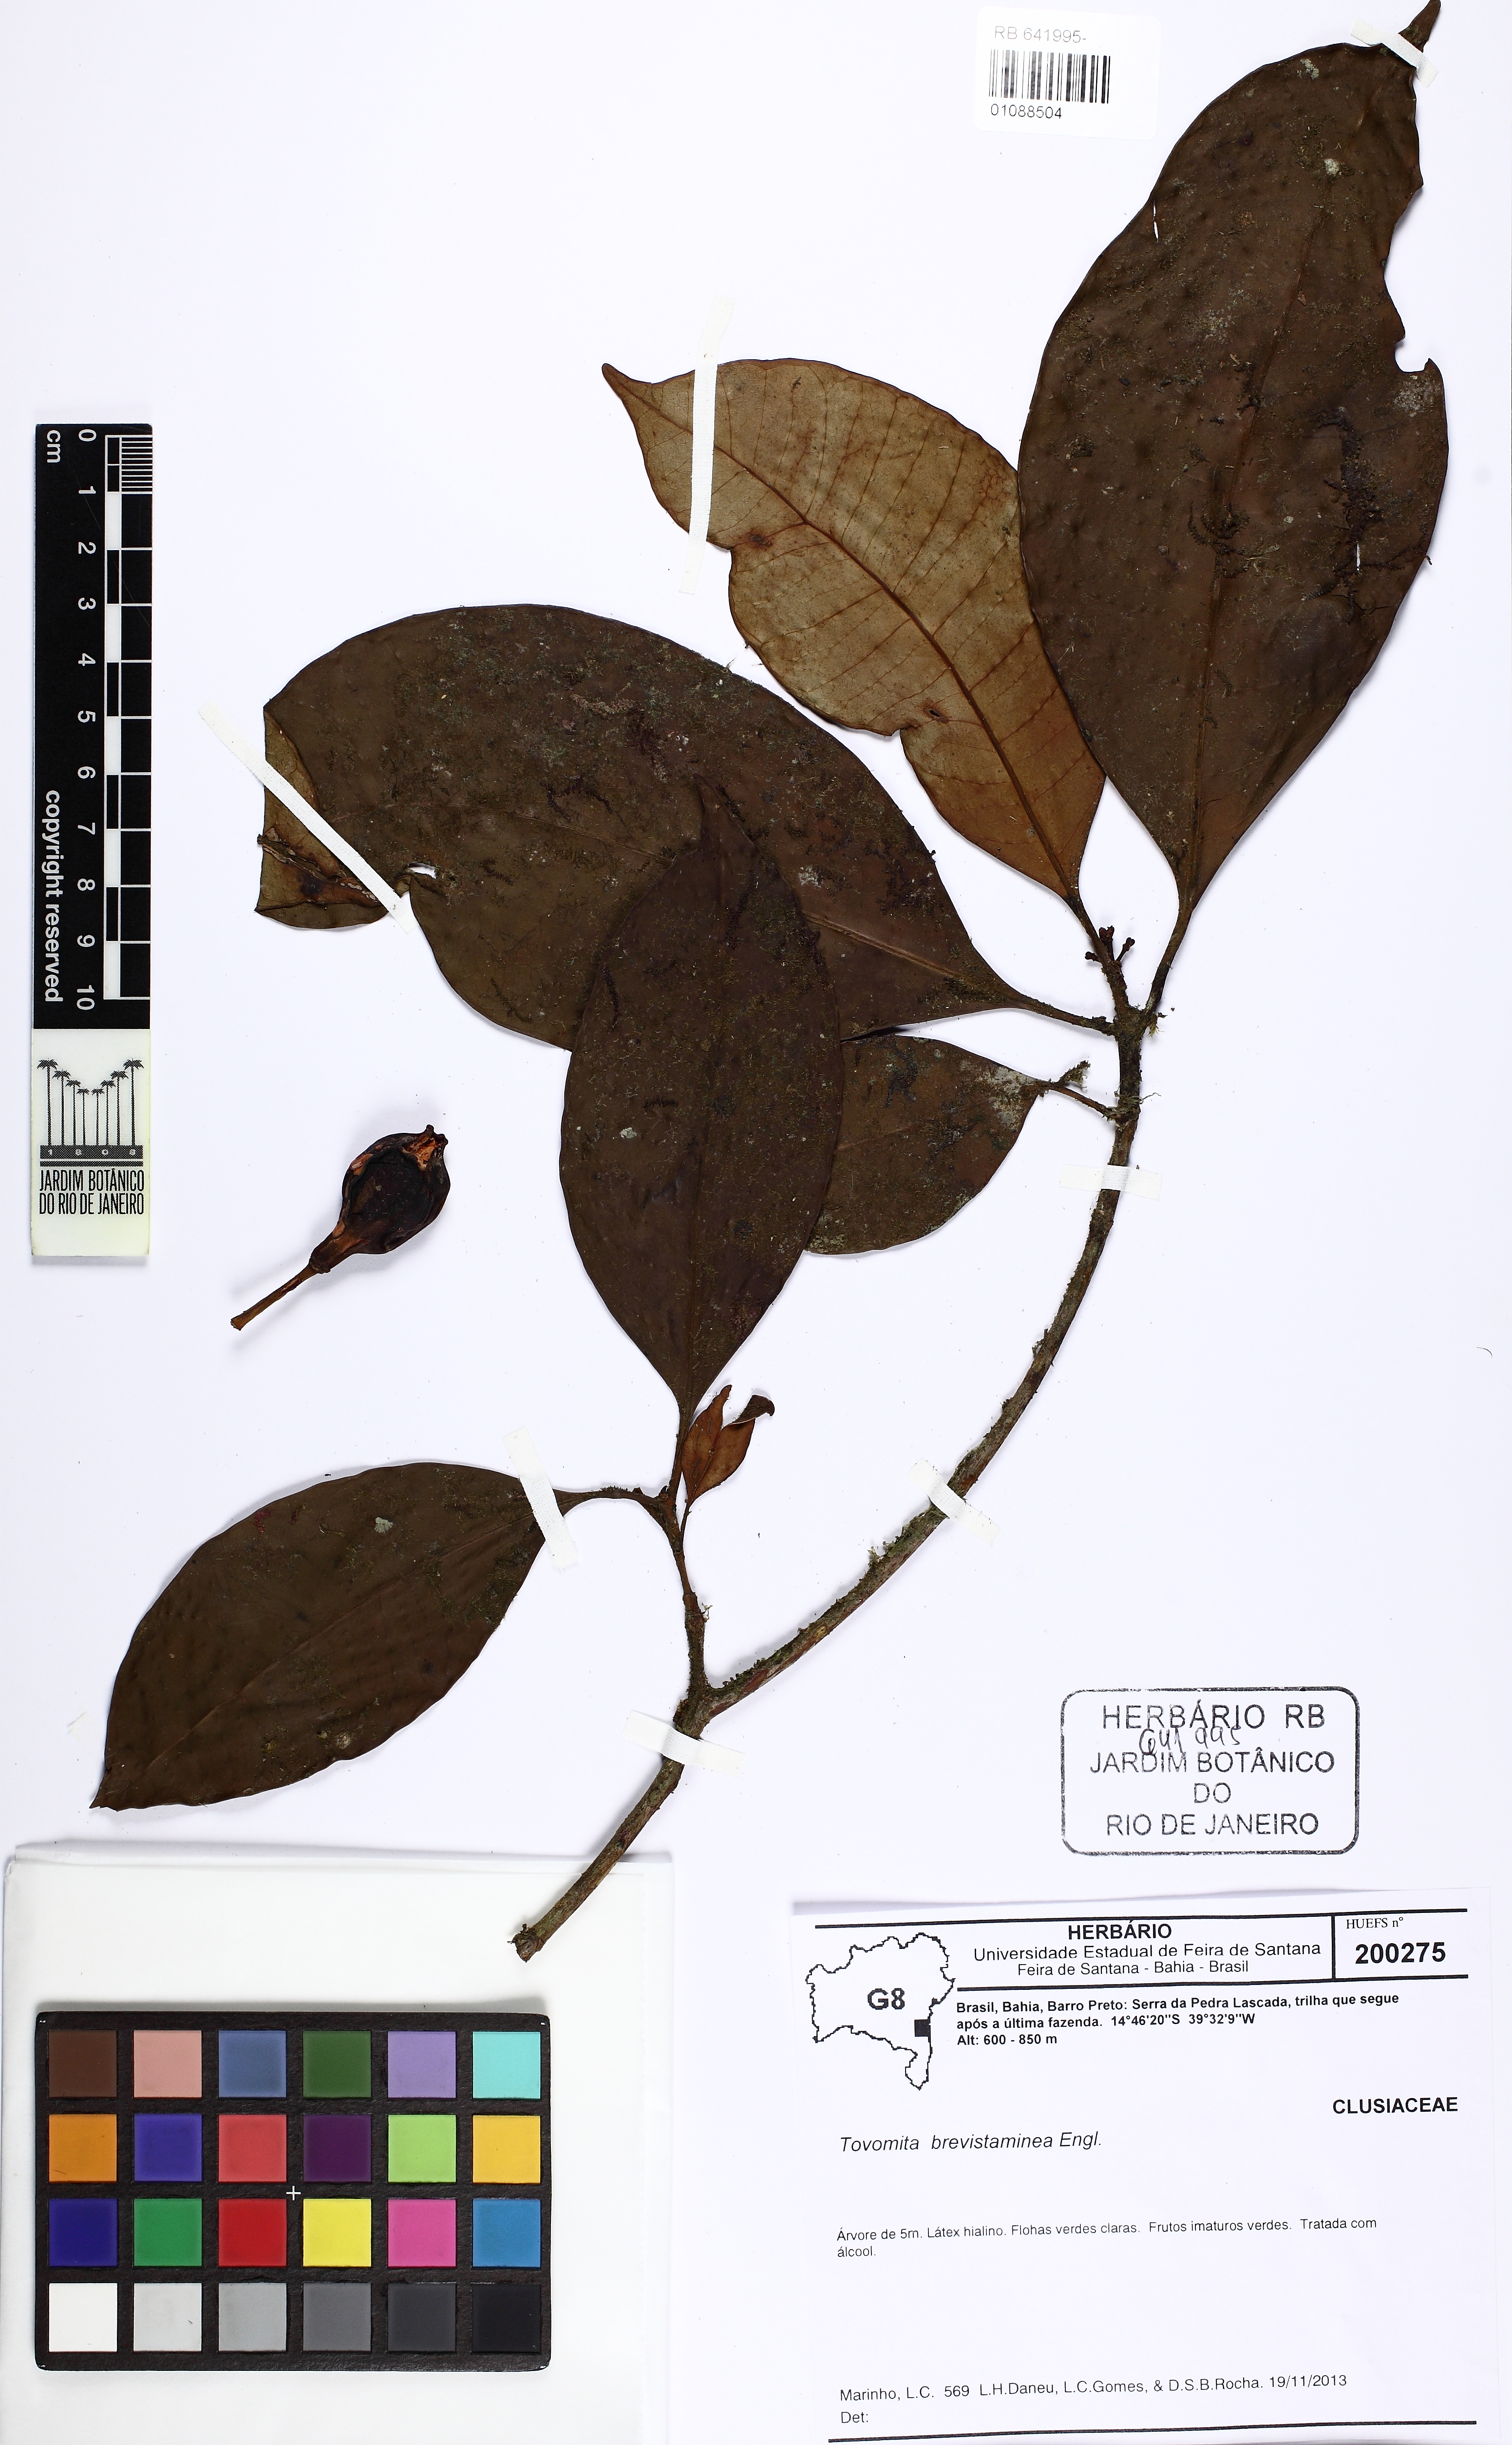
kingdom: Plantae
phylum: Tracheophyta
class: Magnoliopsida
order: Malpighiales
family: Clusiaceae
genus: Tovomita
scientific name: Tovomita brevistaminea
